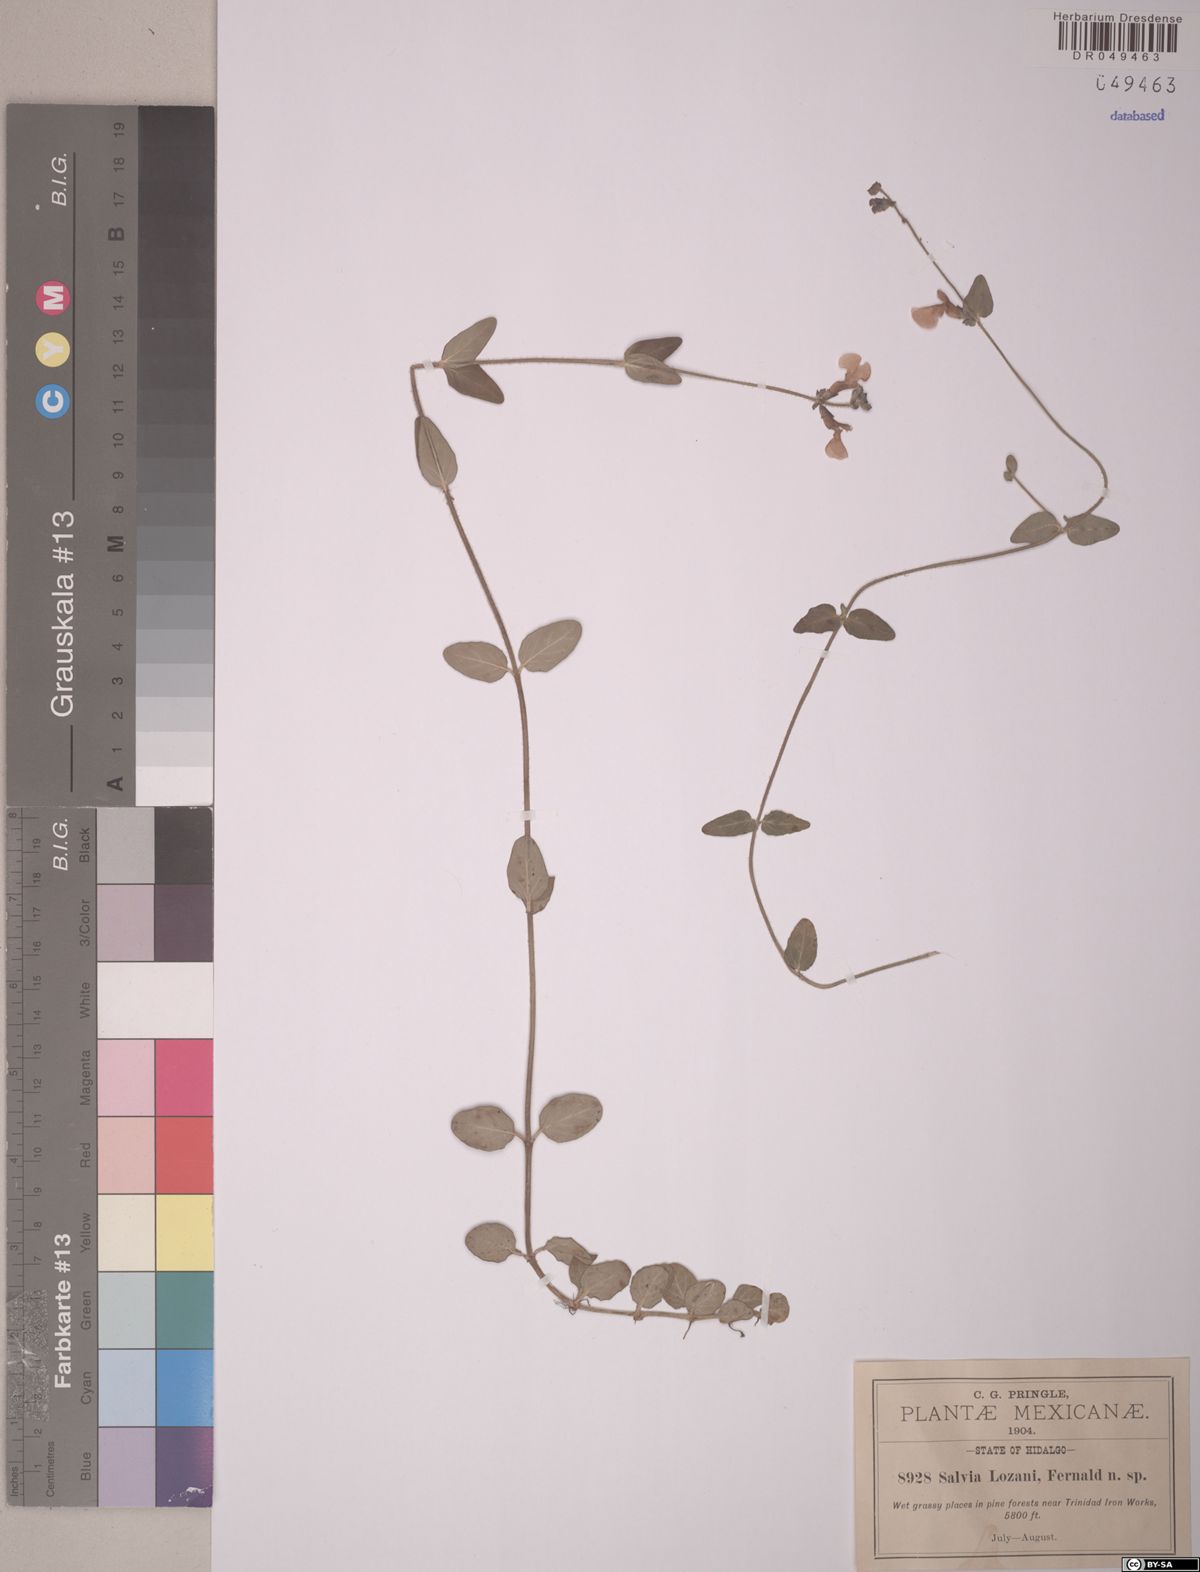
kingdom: Plantae
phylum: Tracheophyta
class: Magnoliopsida
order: Lamiales
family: Lamiaceae
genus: Salvia
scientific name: Salvia lozanii
